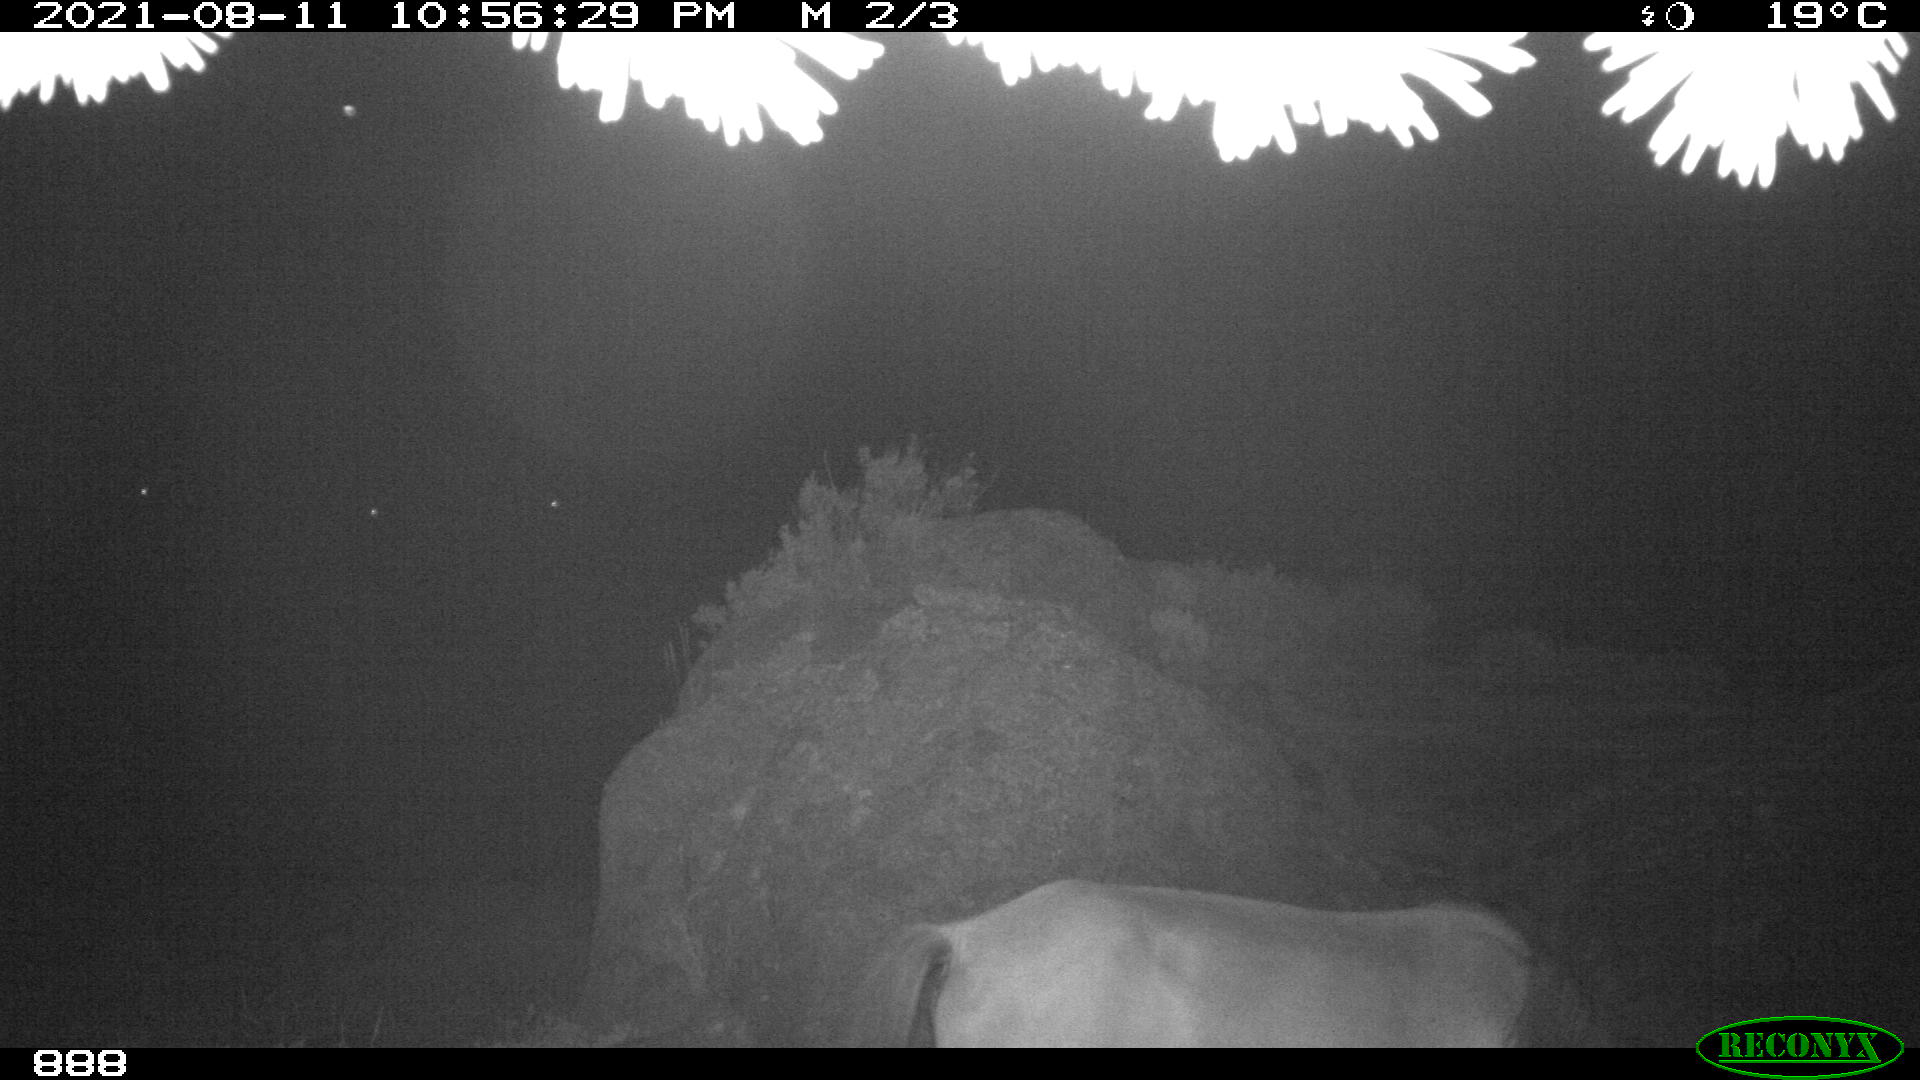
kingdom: Animalia
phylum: Chordata
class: Mammalia
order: Perissodactyla
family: Equidae
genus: Equus
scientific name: Equus caballus
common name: Horse
